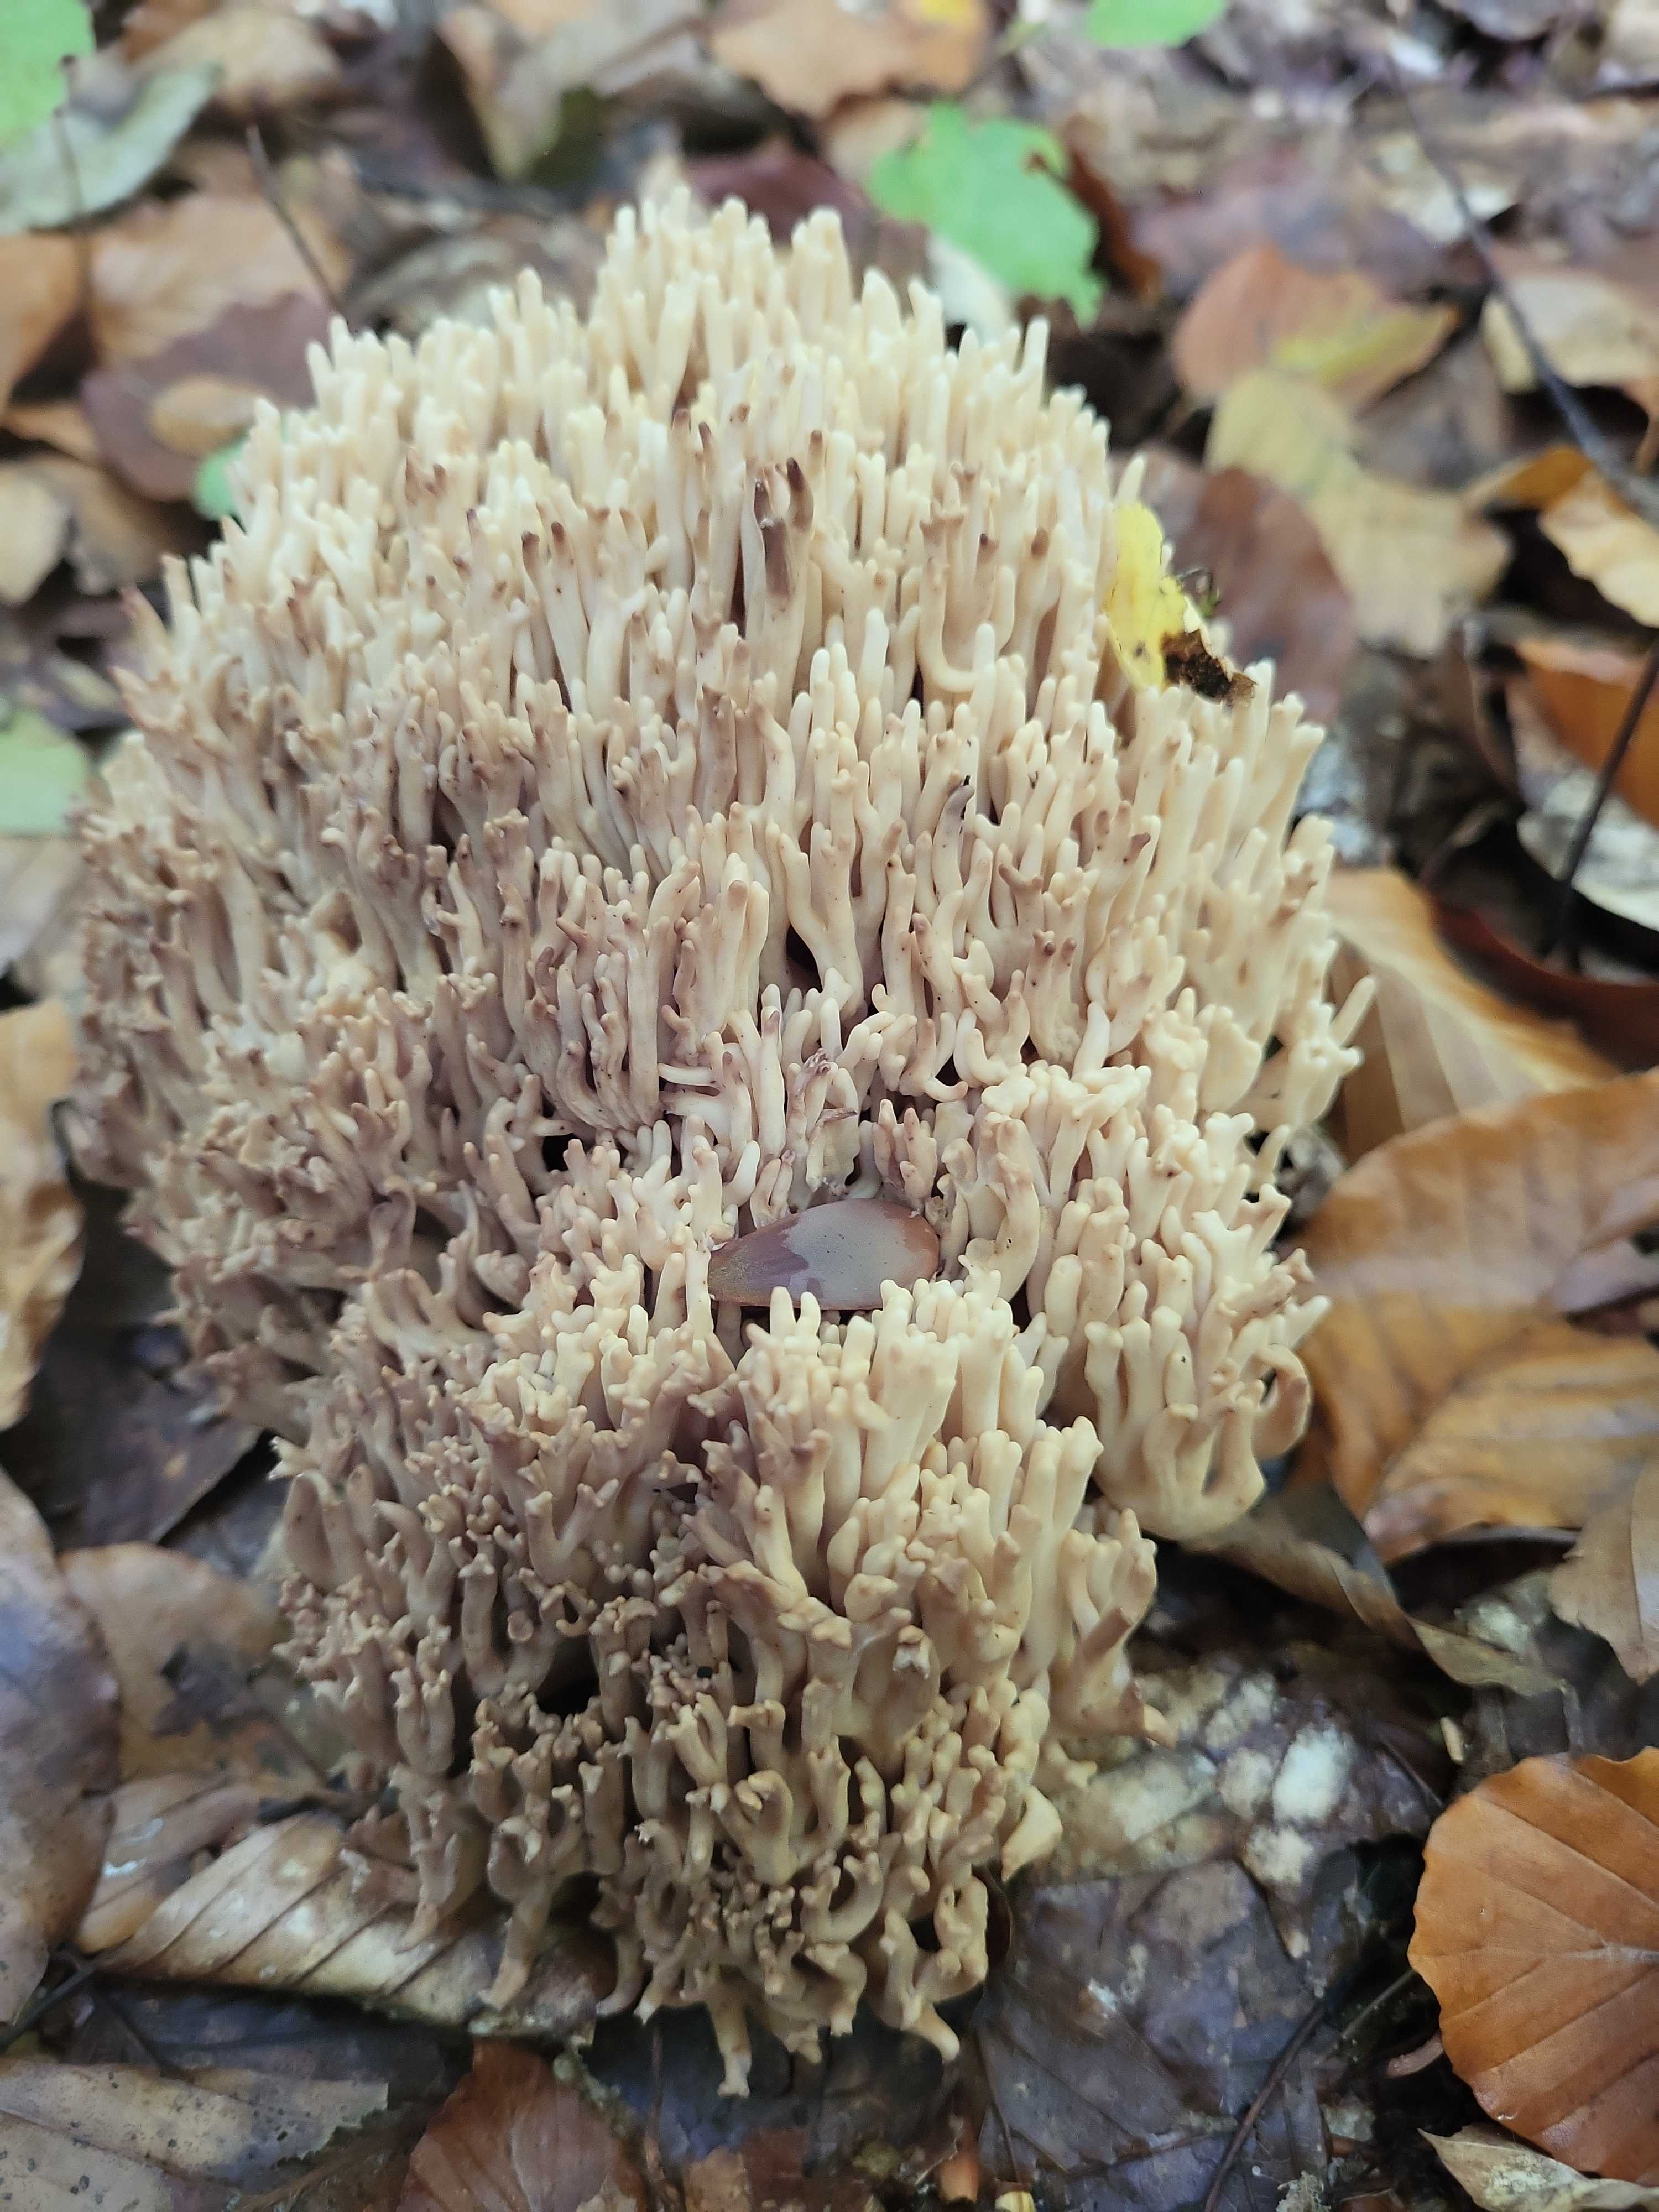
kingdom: Fungi
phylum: Basidiomycota
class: Agaricomycetes
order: Gomphales
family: Gomphaceae
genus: Ramaria
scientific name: Ramaria stricta
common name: rank koralsvamp
